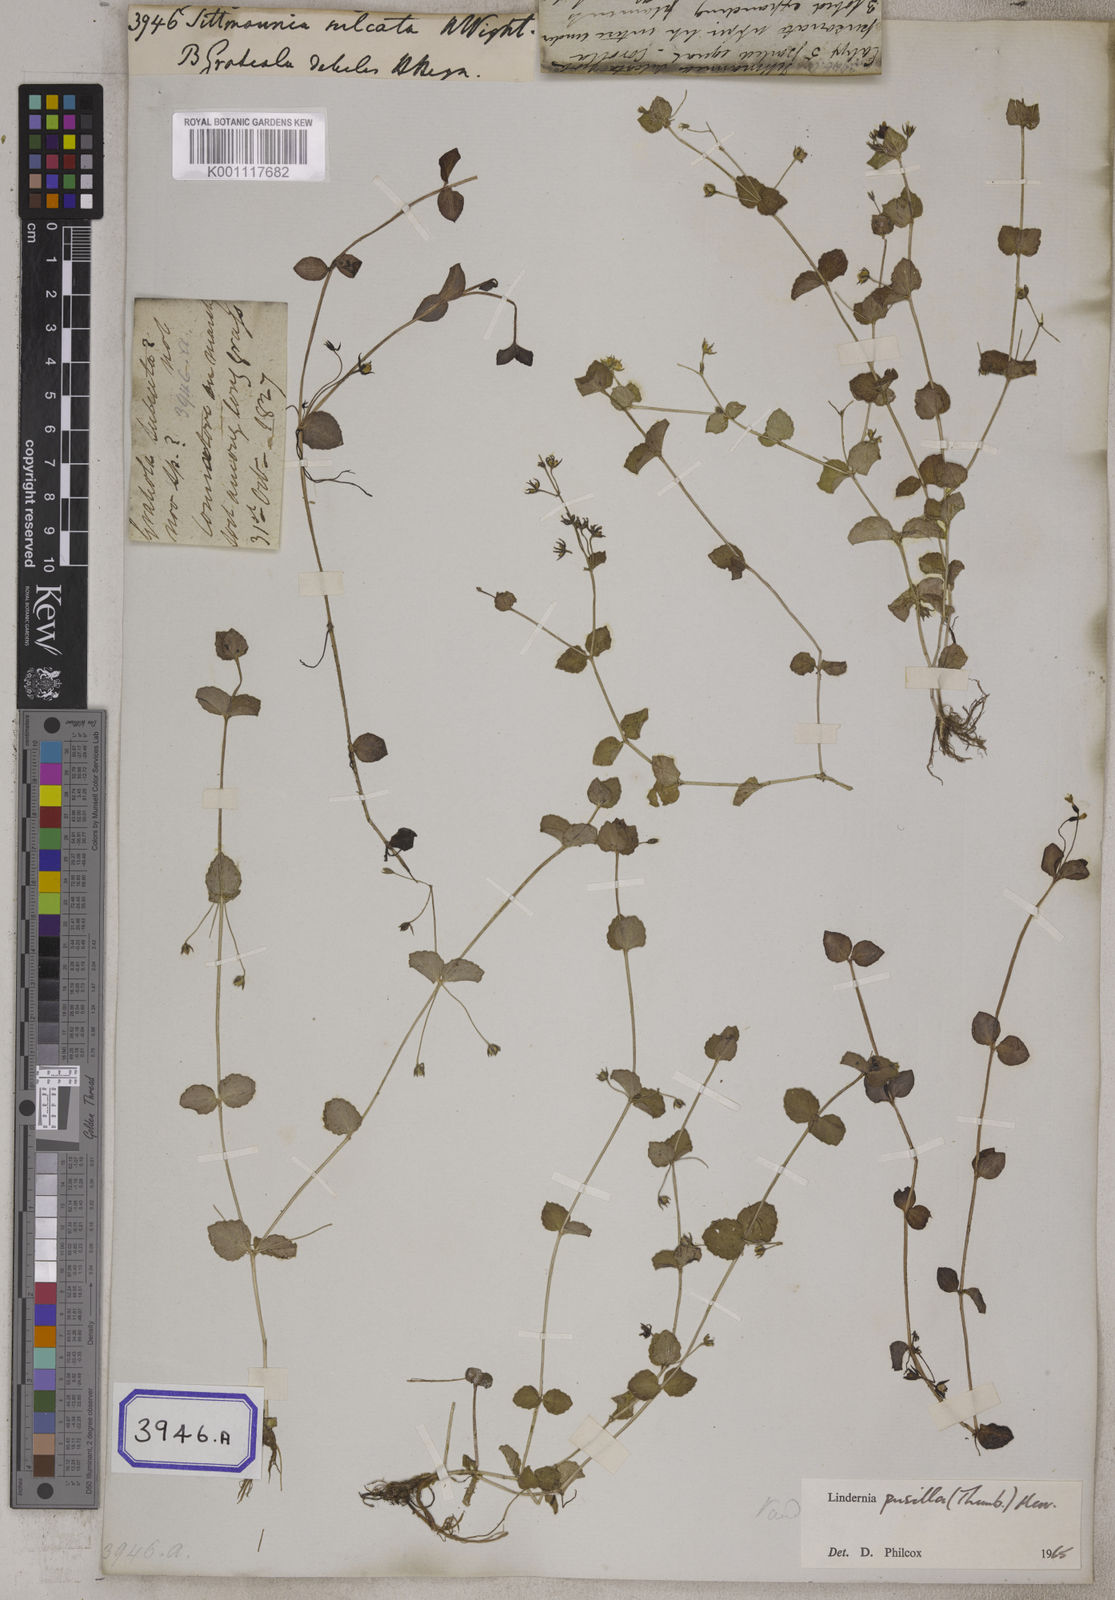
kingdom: Plantae
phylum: Tracheophyta
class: Magnoliopsida
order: Lamiales
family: Linderniaceae
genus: Yamazakia
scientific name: Yamazakia pusilla
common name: Tiny slitwort
